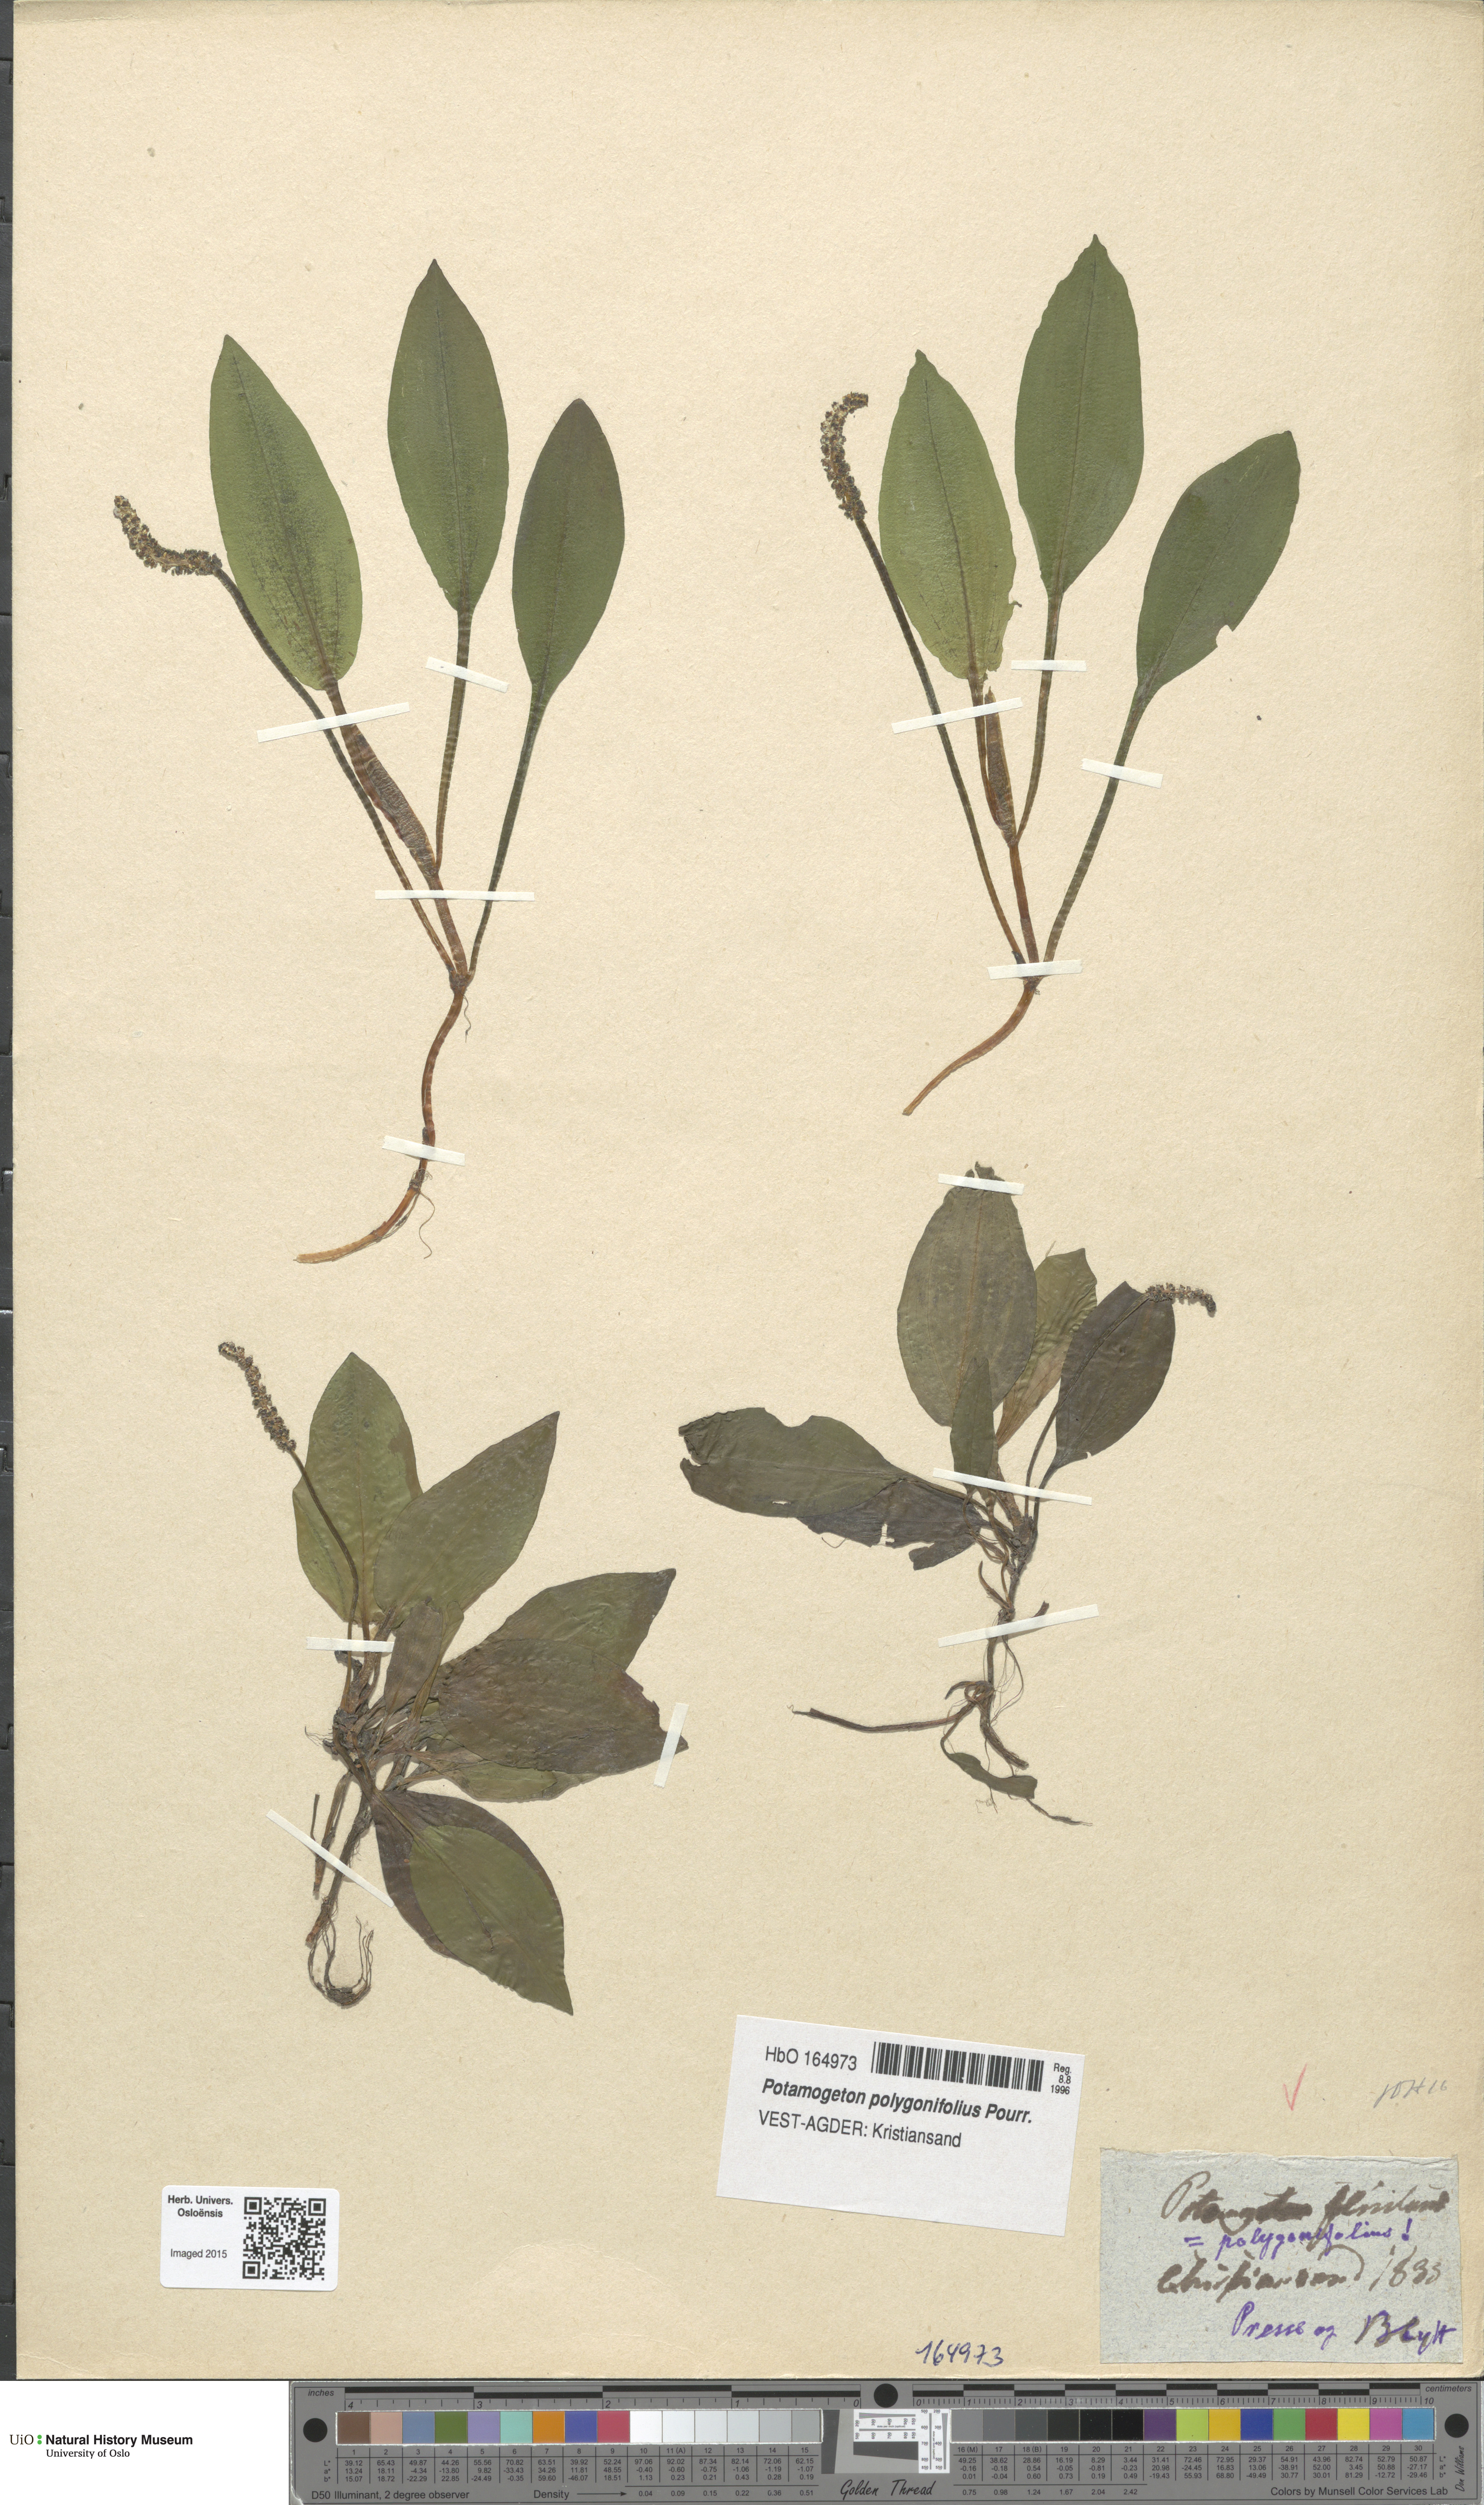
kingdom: Plantae
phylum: Tracheophyta
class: Liliopsida
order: Alismatales
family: Potamogetonaceae
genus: Potamogeton
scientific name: Potamogeton polygonifolius
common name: Bog pondweed
